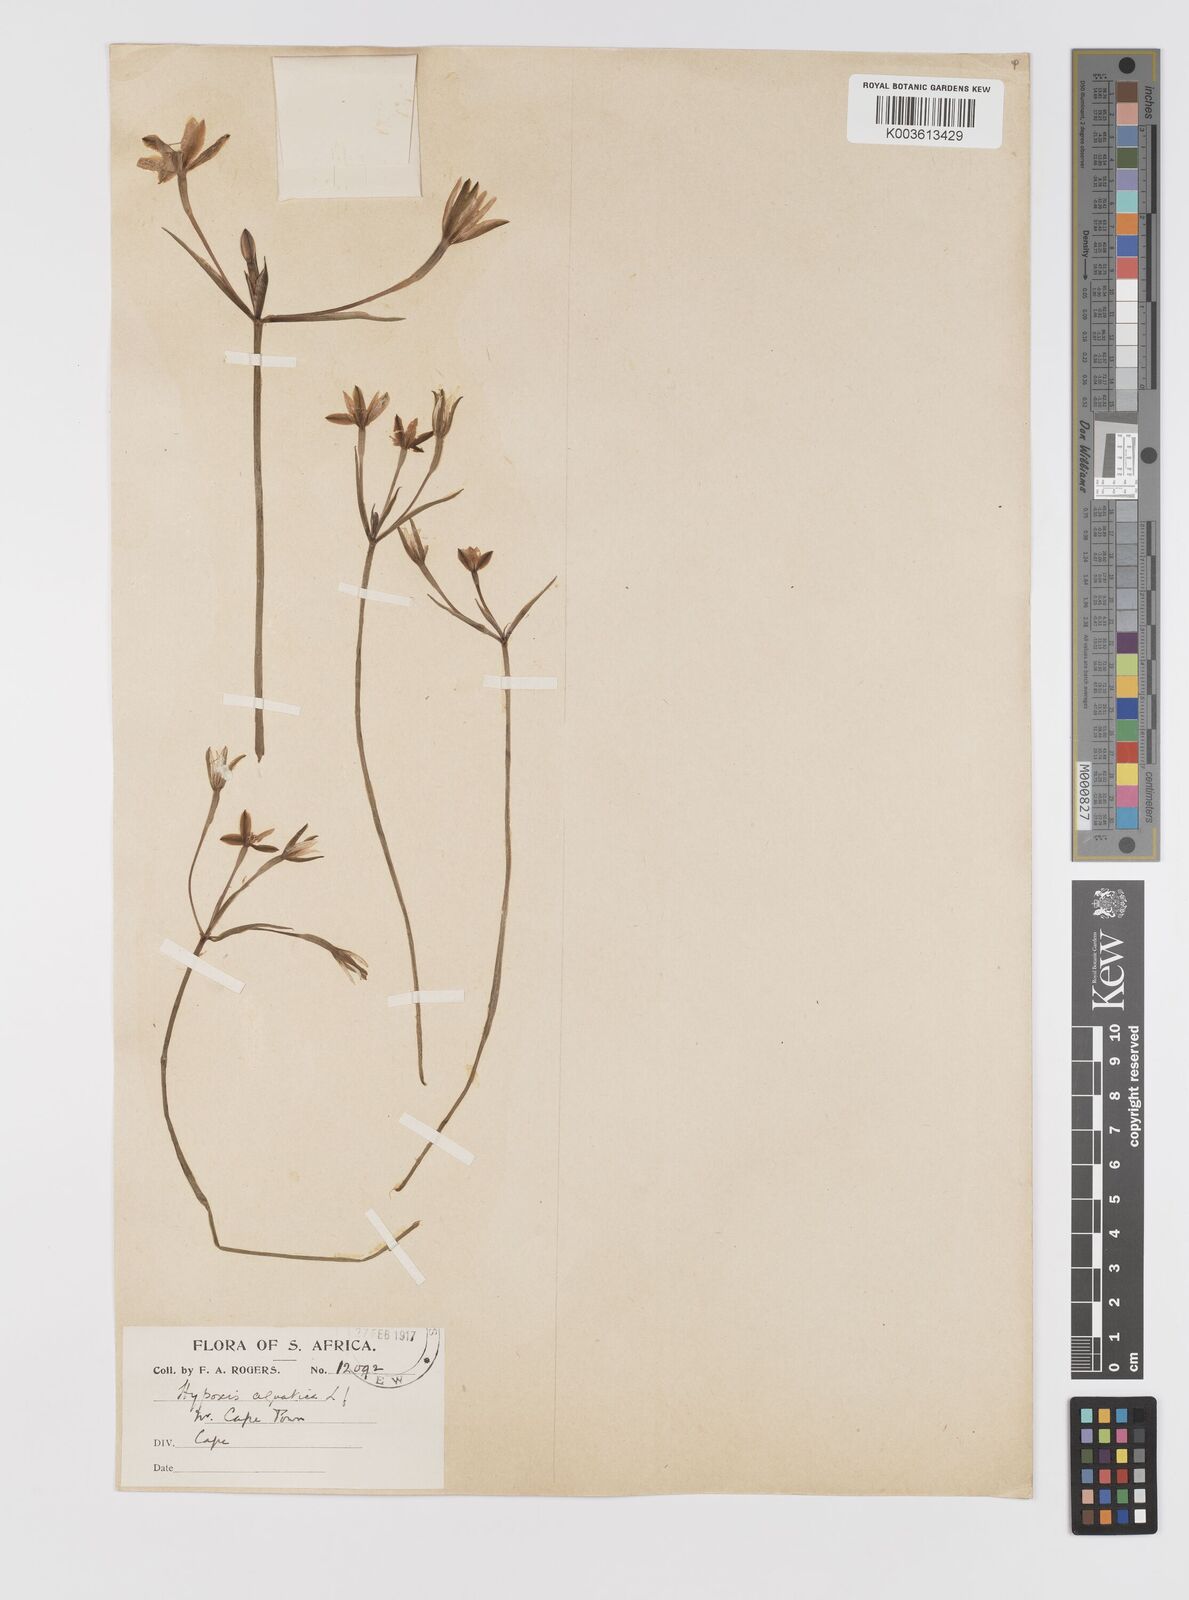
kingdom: Plantae
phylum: Tracheophyta
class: Liliopsida
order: Asparagales
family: Hypoxidaceae
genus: Pauridia
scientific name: Pauridia aquatica
